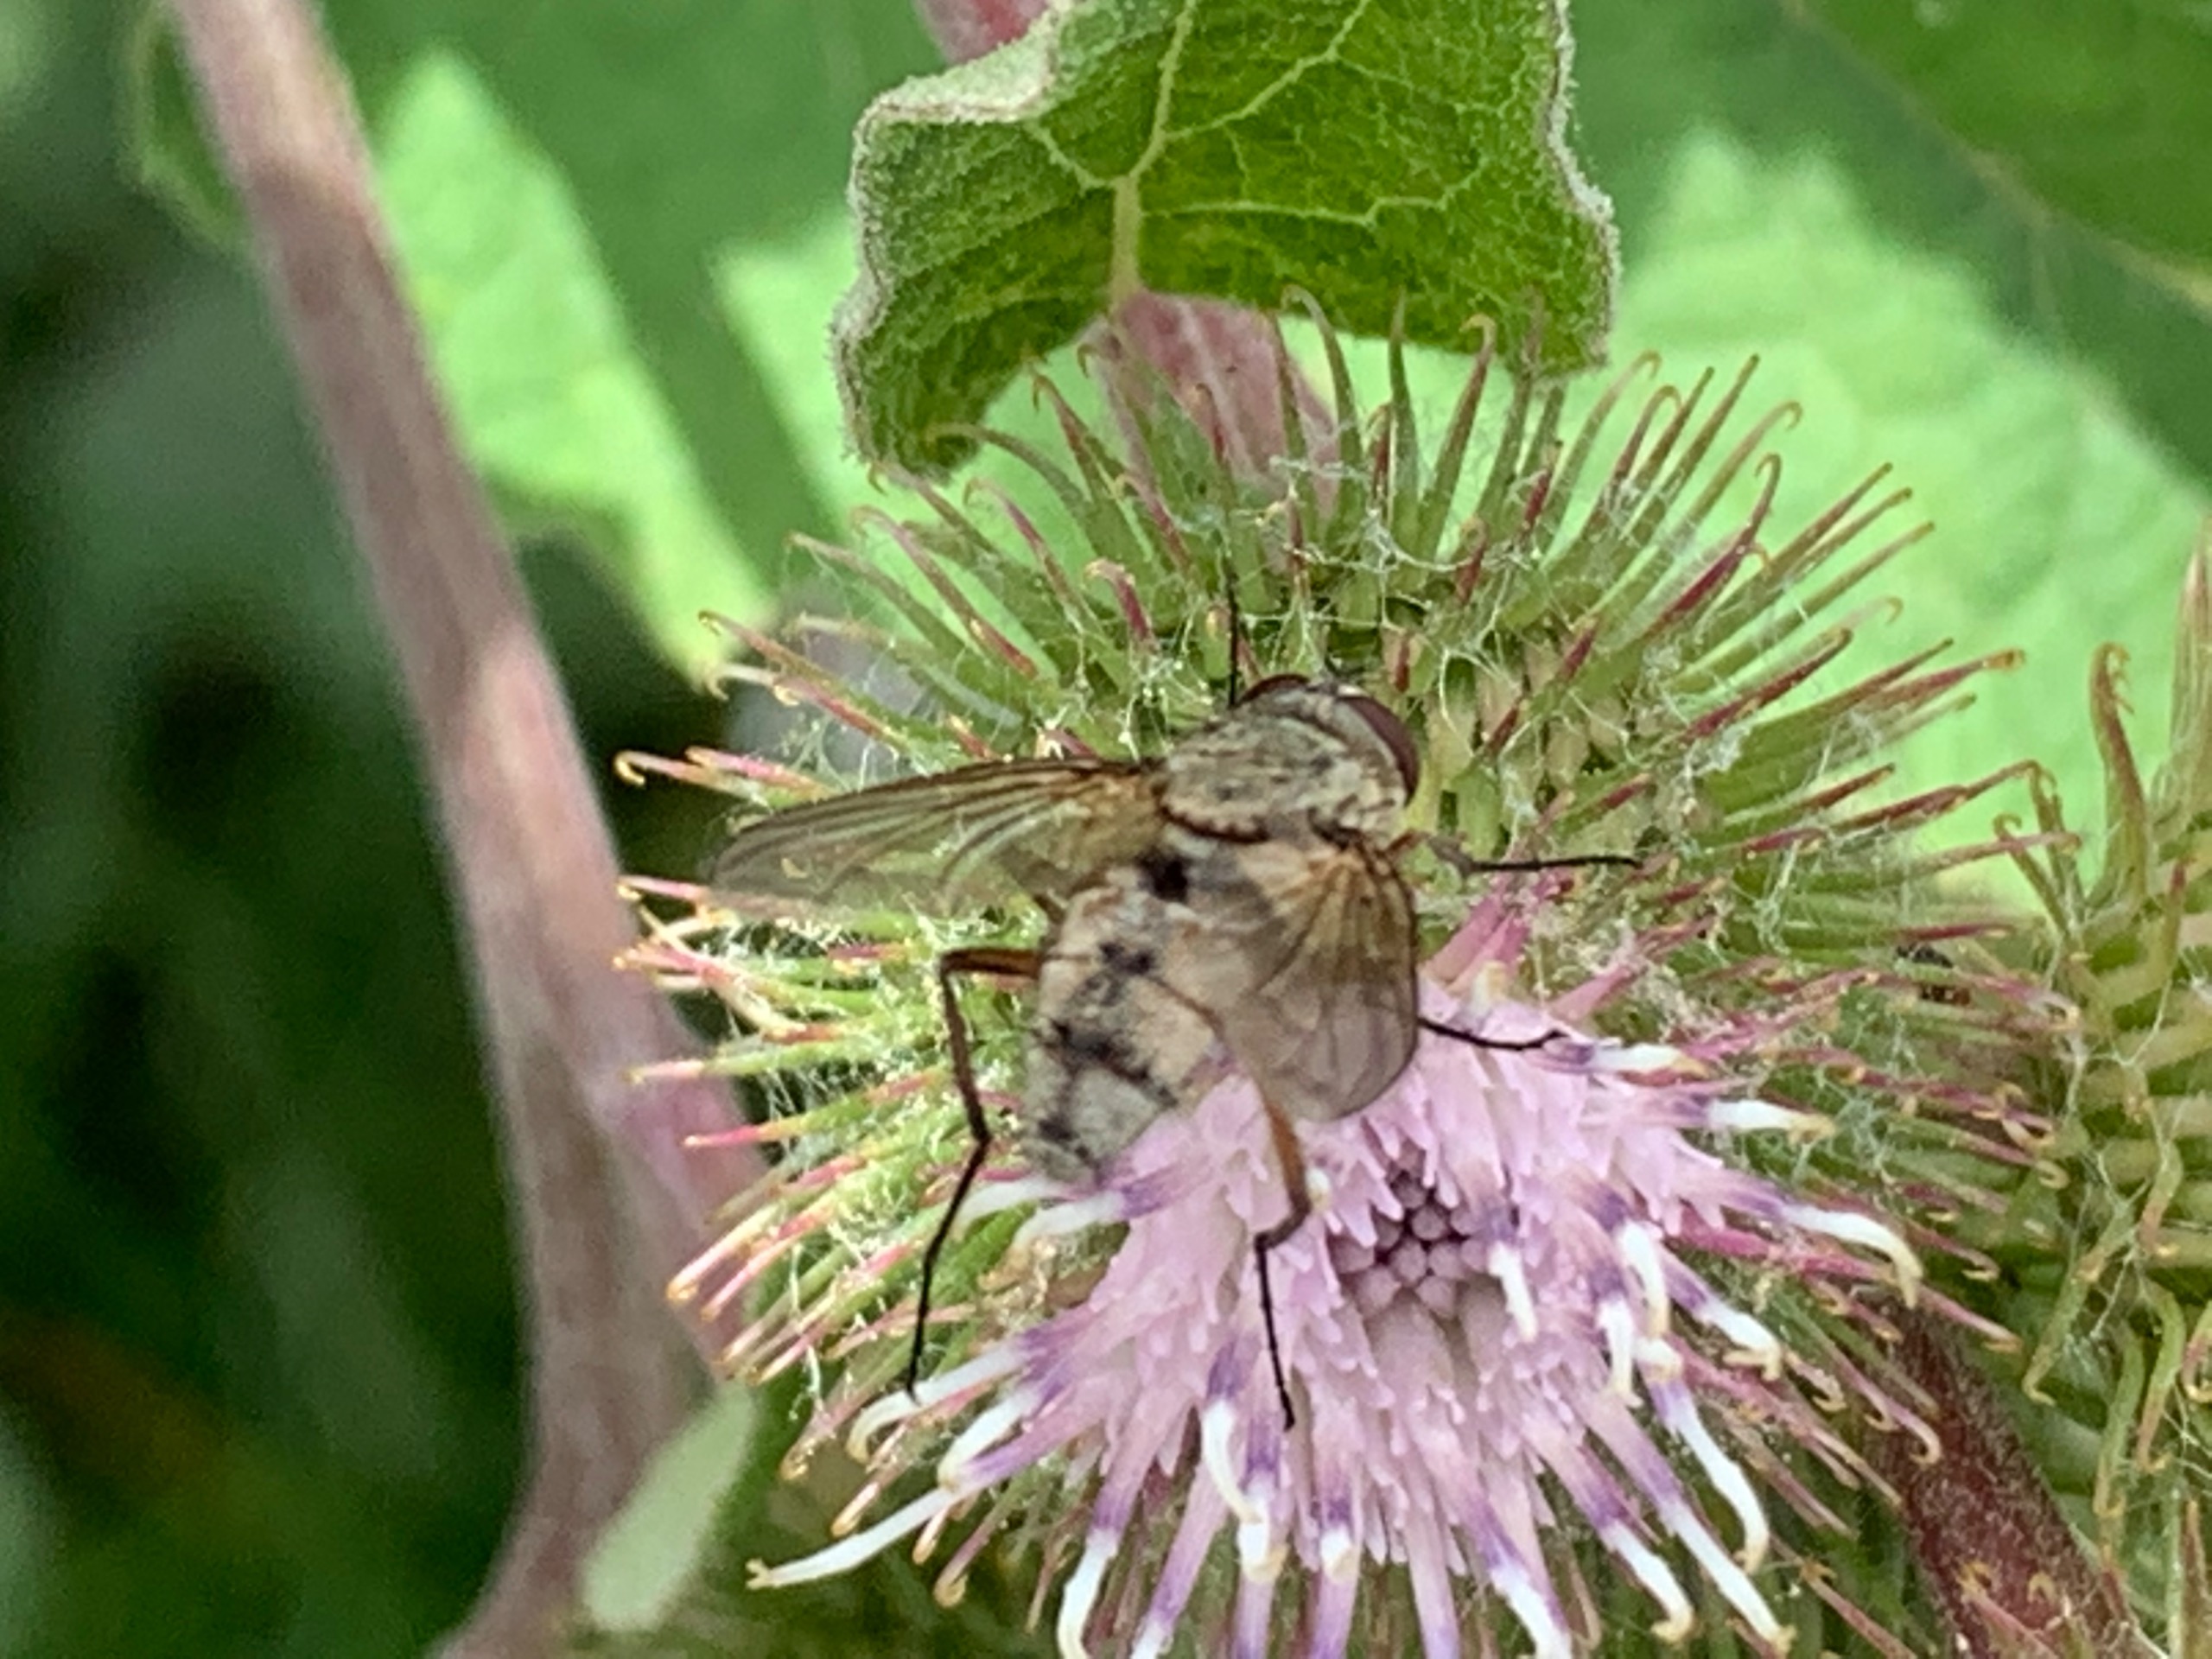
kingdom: Animalia
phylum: Arthropoda
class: Insecta
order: Diptera
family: Tachinidae
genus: Prosena
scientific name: Prosena siberita
